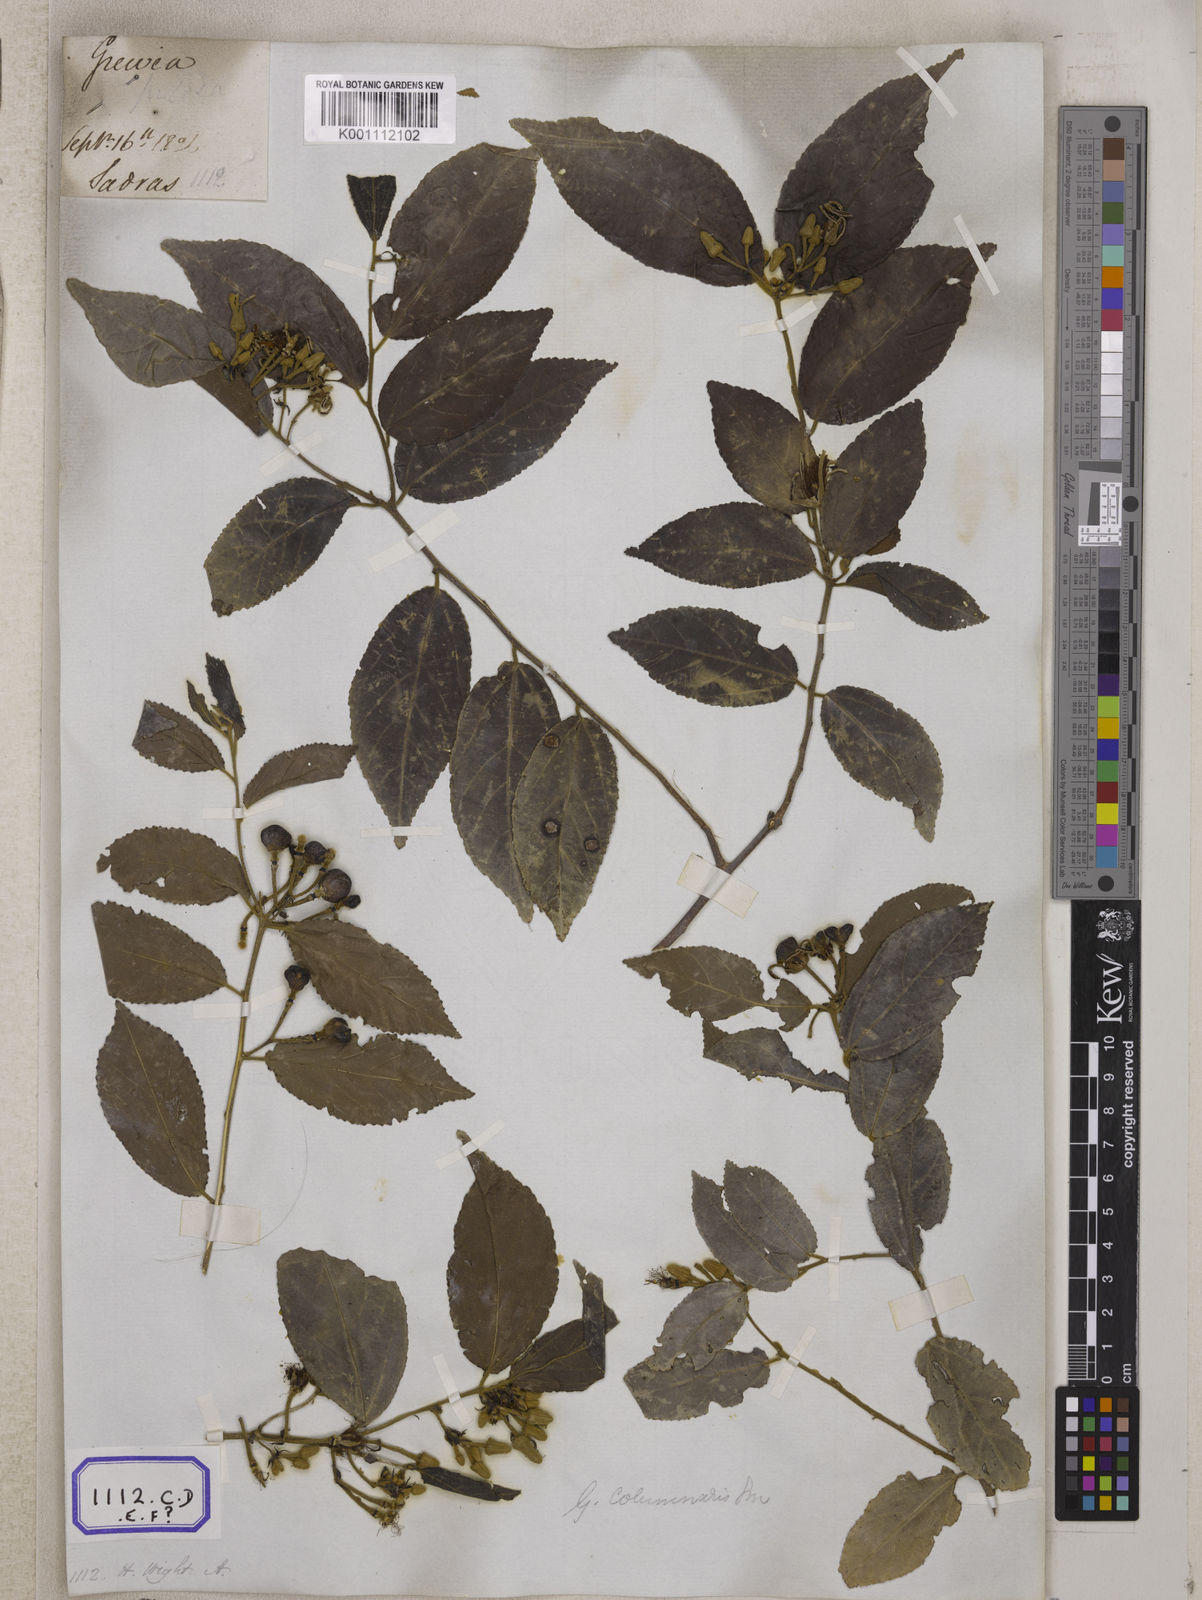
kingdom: Plantae
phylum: Tracheophyta
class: Magnoliopsida
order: Malvales
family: Malvaceae
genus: Grewia
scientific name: Grewia hirsuta
